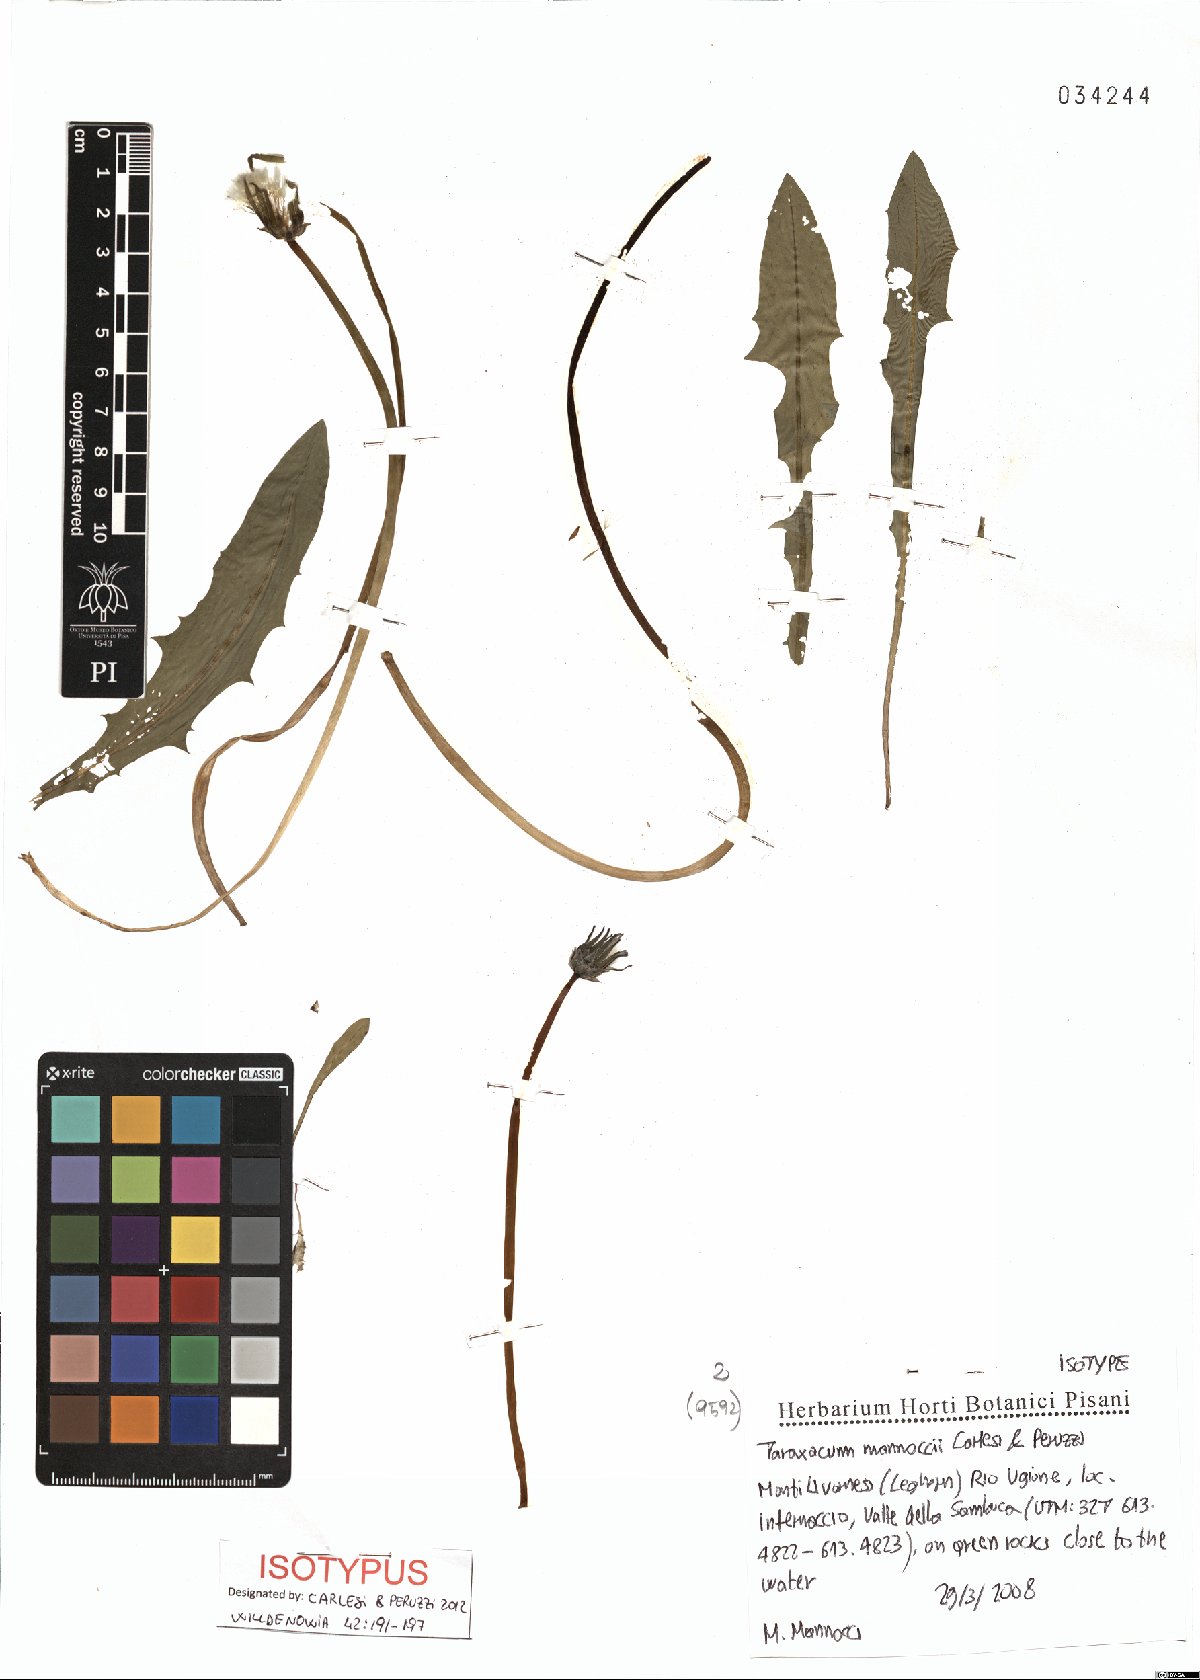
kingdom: Plantae
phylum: Tracheophyta
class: Magnoliopsida
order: Asterales
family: Asteraceae
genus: Taraxacum
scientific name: Taraxacum mannoccii
